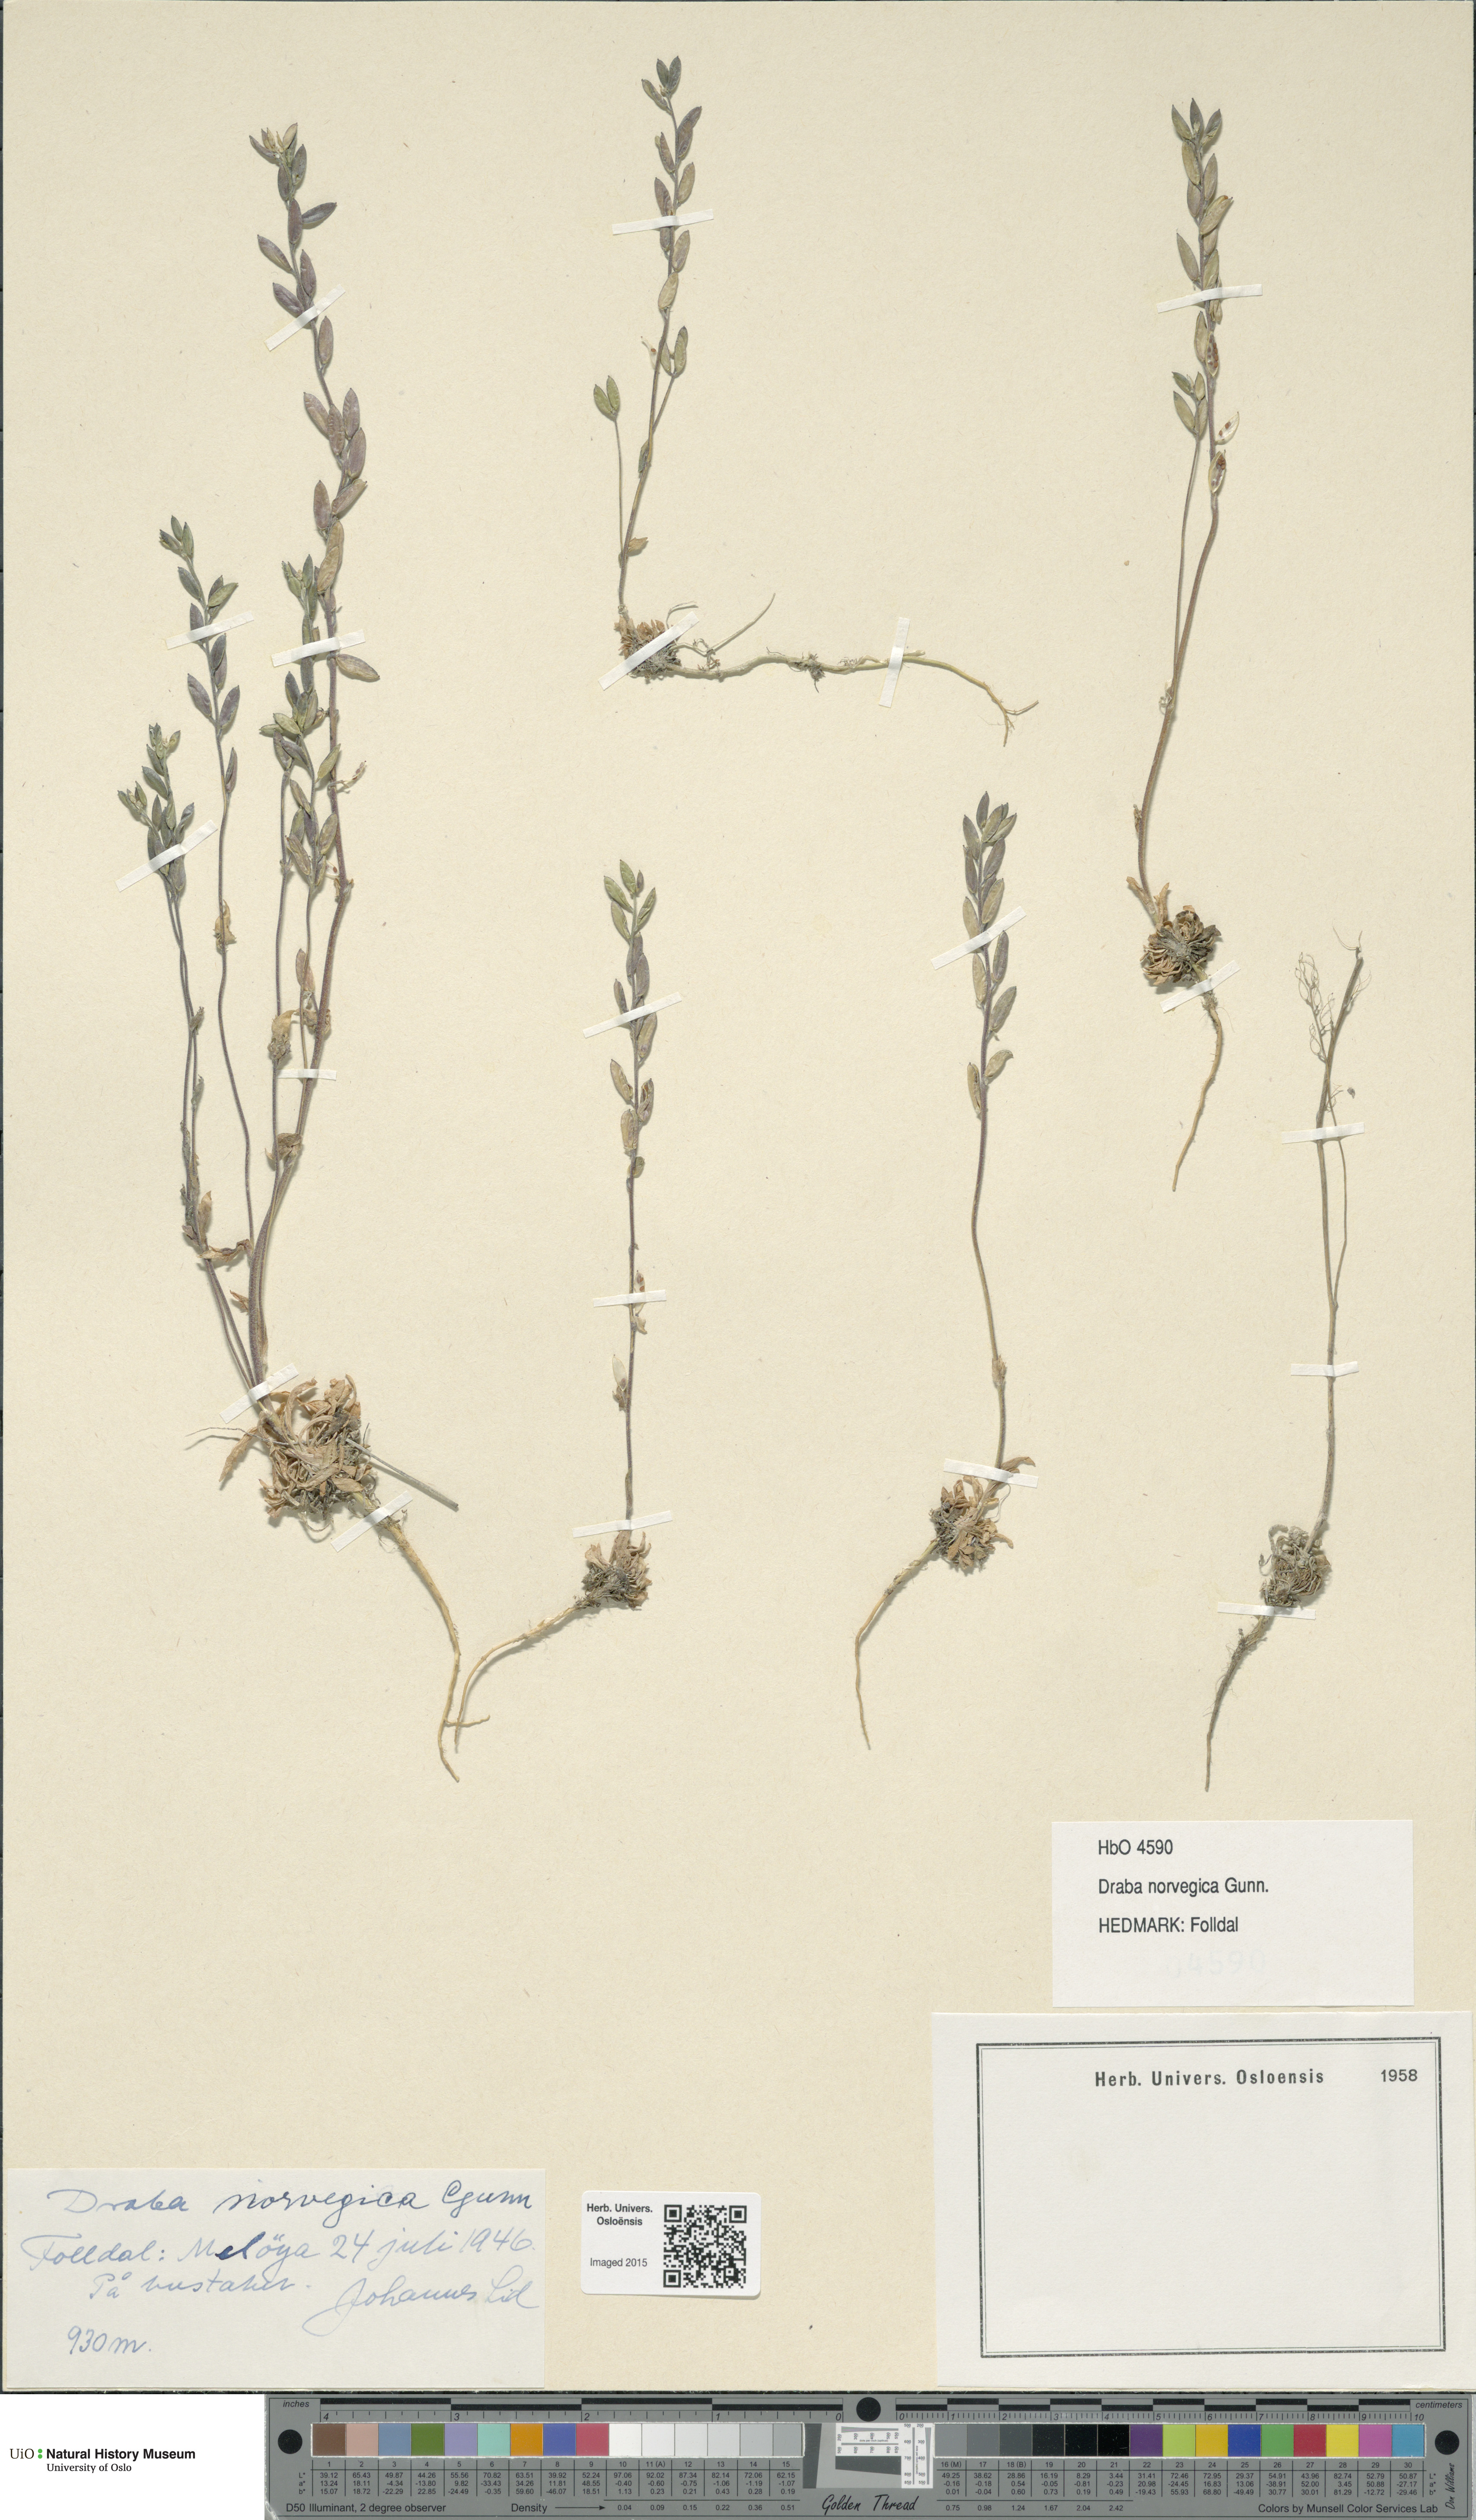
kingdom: Plantae
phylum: Tracheophyta
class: Magnoliopsida
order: Brassicales
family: Brassicaceae
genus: Draba
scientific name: Draba norvegica
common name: Rock whitlowgrass
